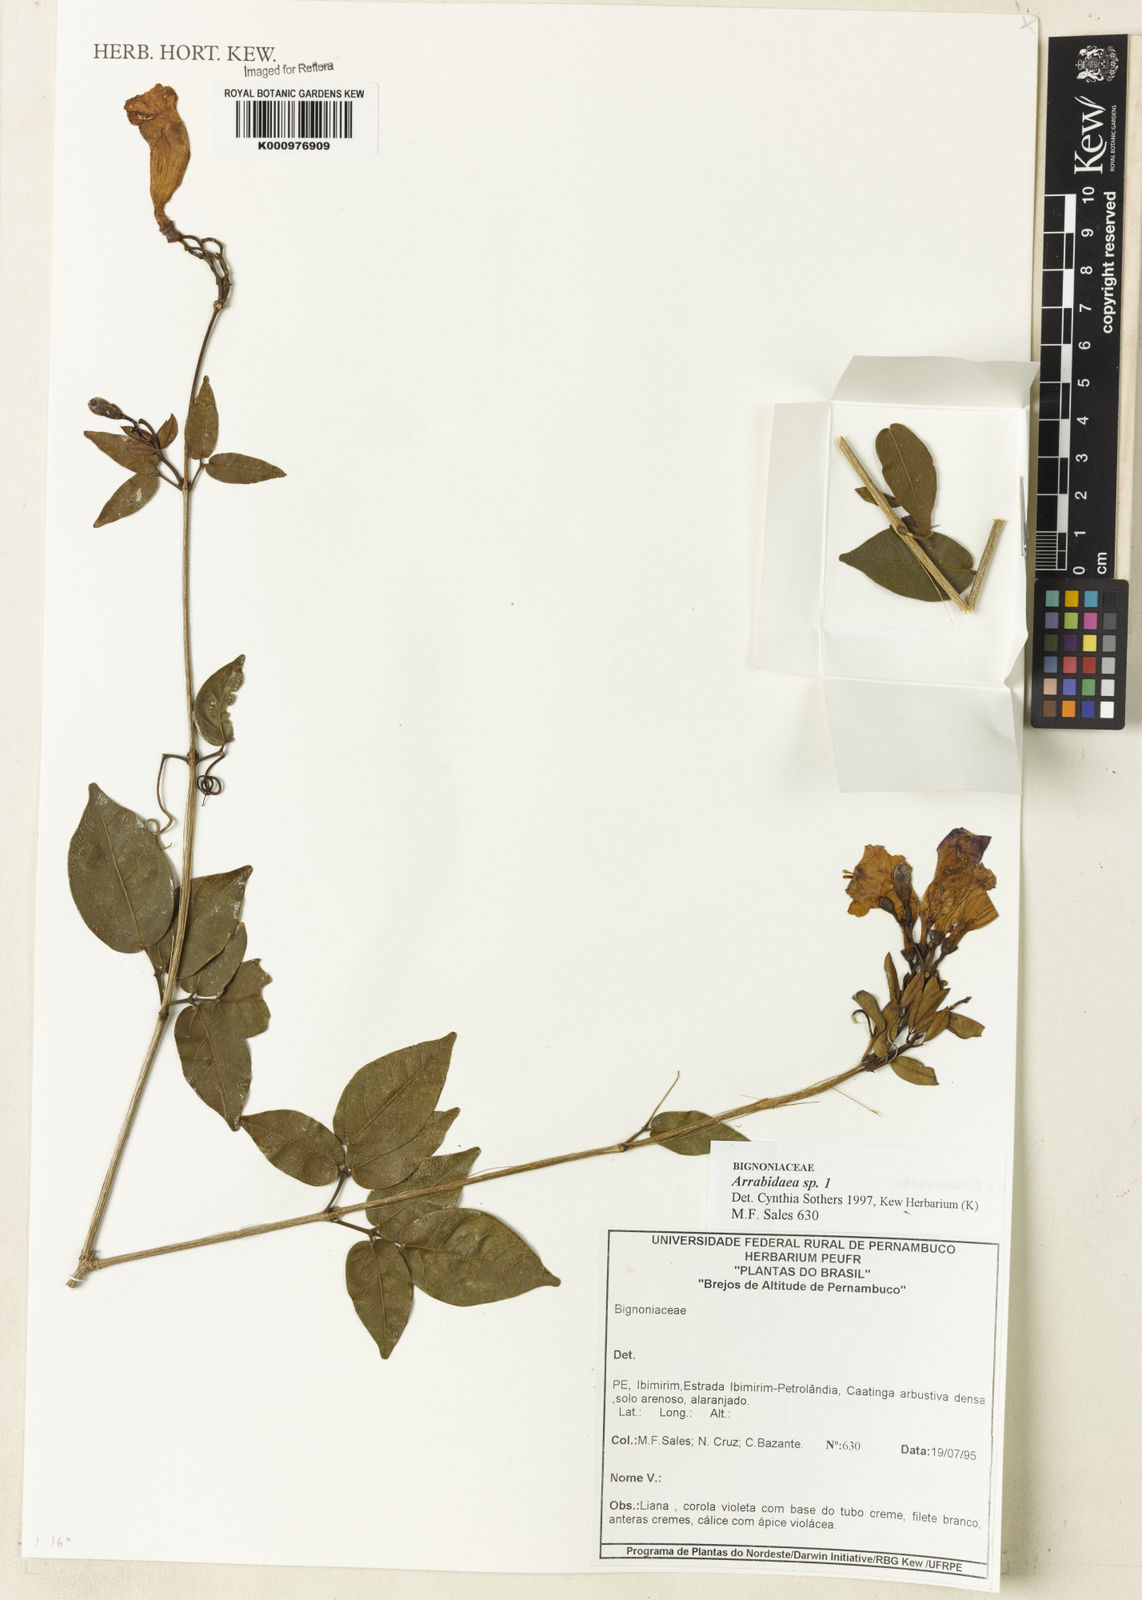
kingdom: Plantae
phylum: Tracheophyta
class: Magnoliopsida
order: Rosales
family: Rhamnaceae
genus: Arrabidaea
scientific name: Arrabidaea
